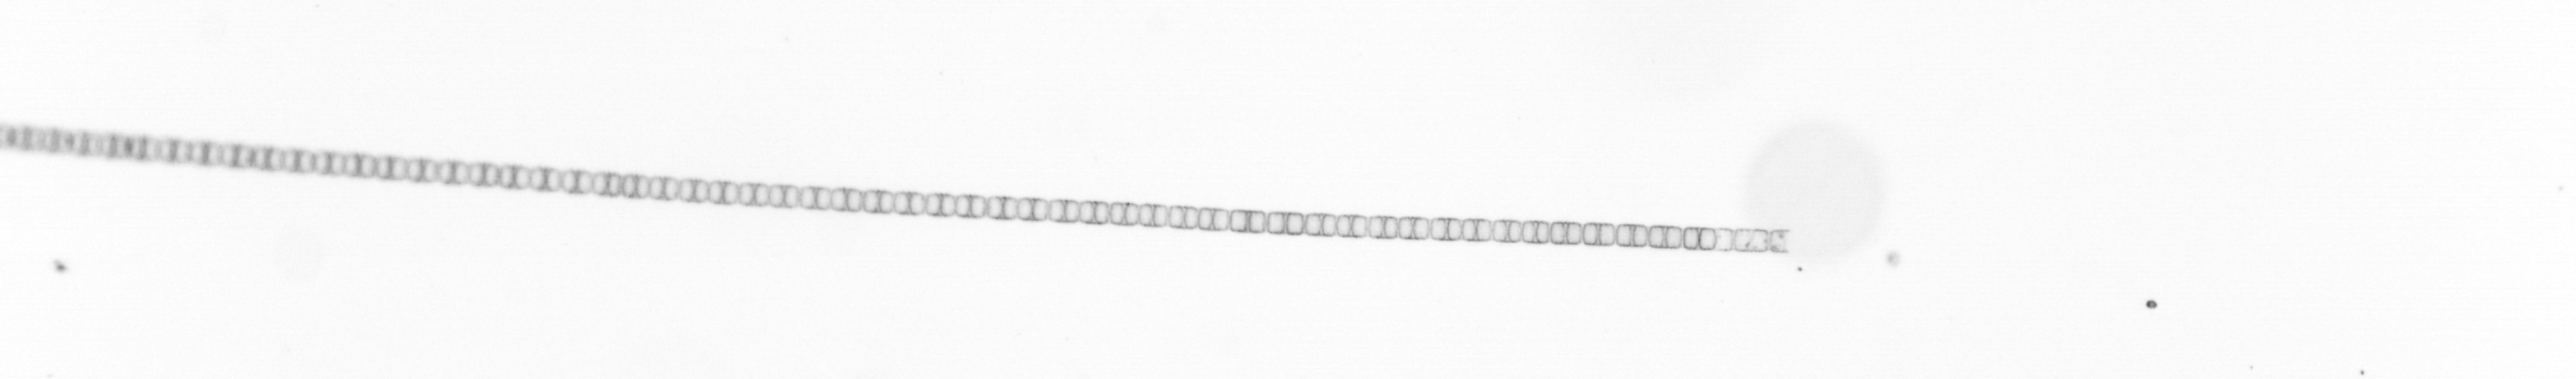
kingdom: Chromista
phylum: Ochrophyta
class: Bacillariophyceae
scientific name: Bacillariophyceae
